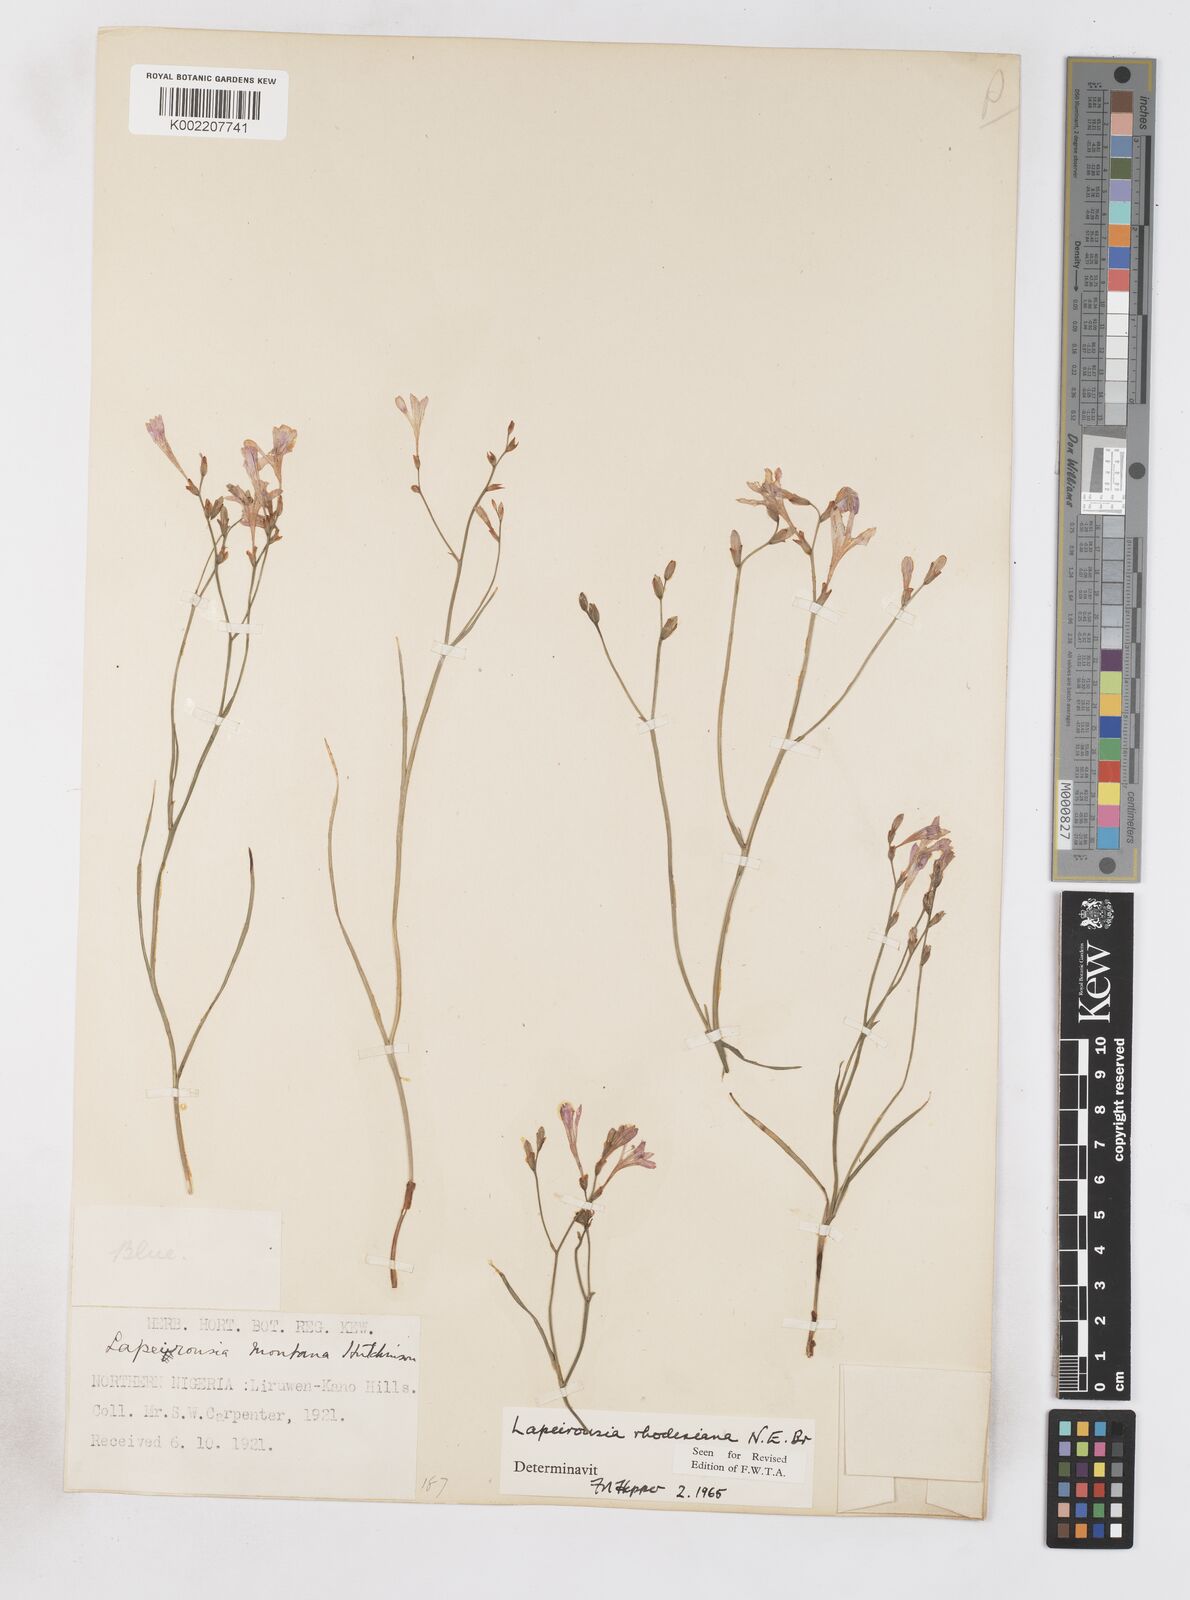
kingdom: Plantae
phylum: Tracheophyta
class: Liliopsida
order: Asparagales
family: Iridaceae
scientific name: Iridaceae
